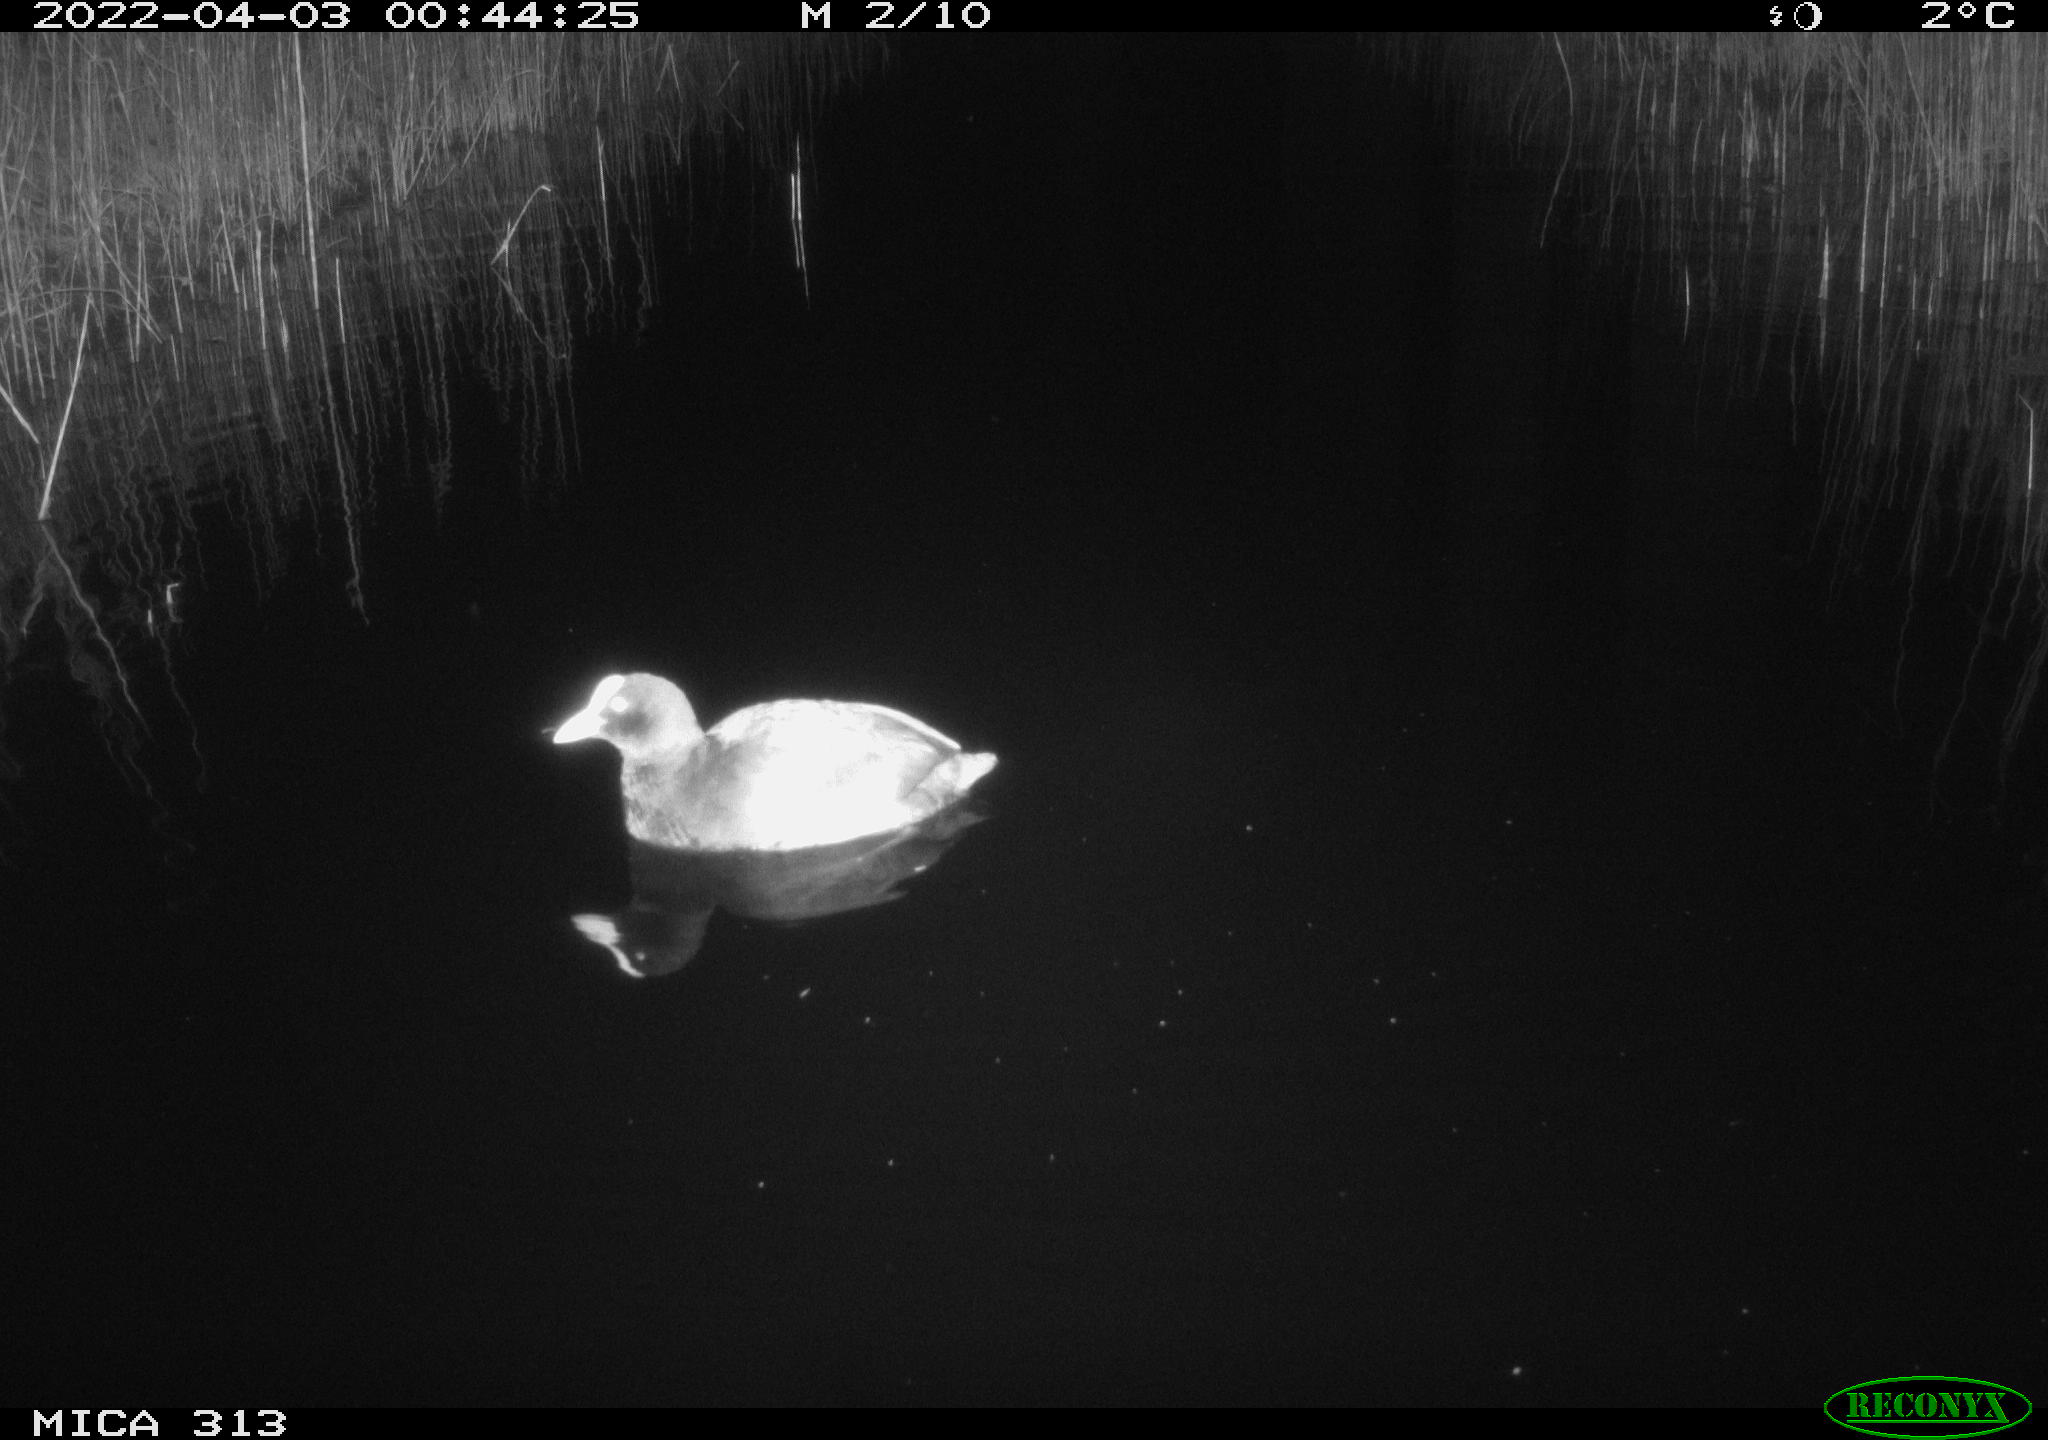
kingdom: Animalia
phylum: Chordata
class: Aves
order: Gruiformes
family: Rallidae
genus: Fulica
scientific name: Fulica atra
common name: Eurasian coot
